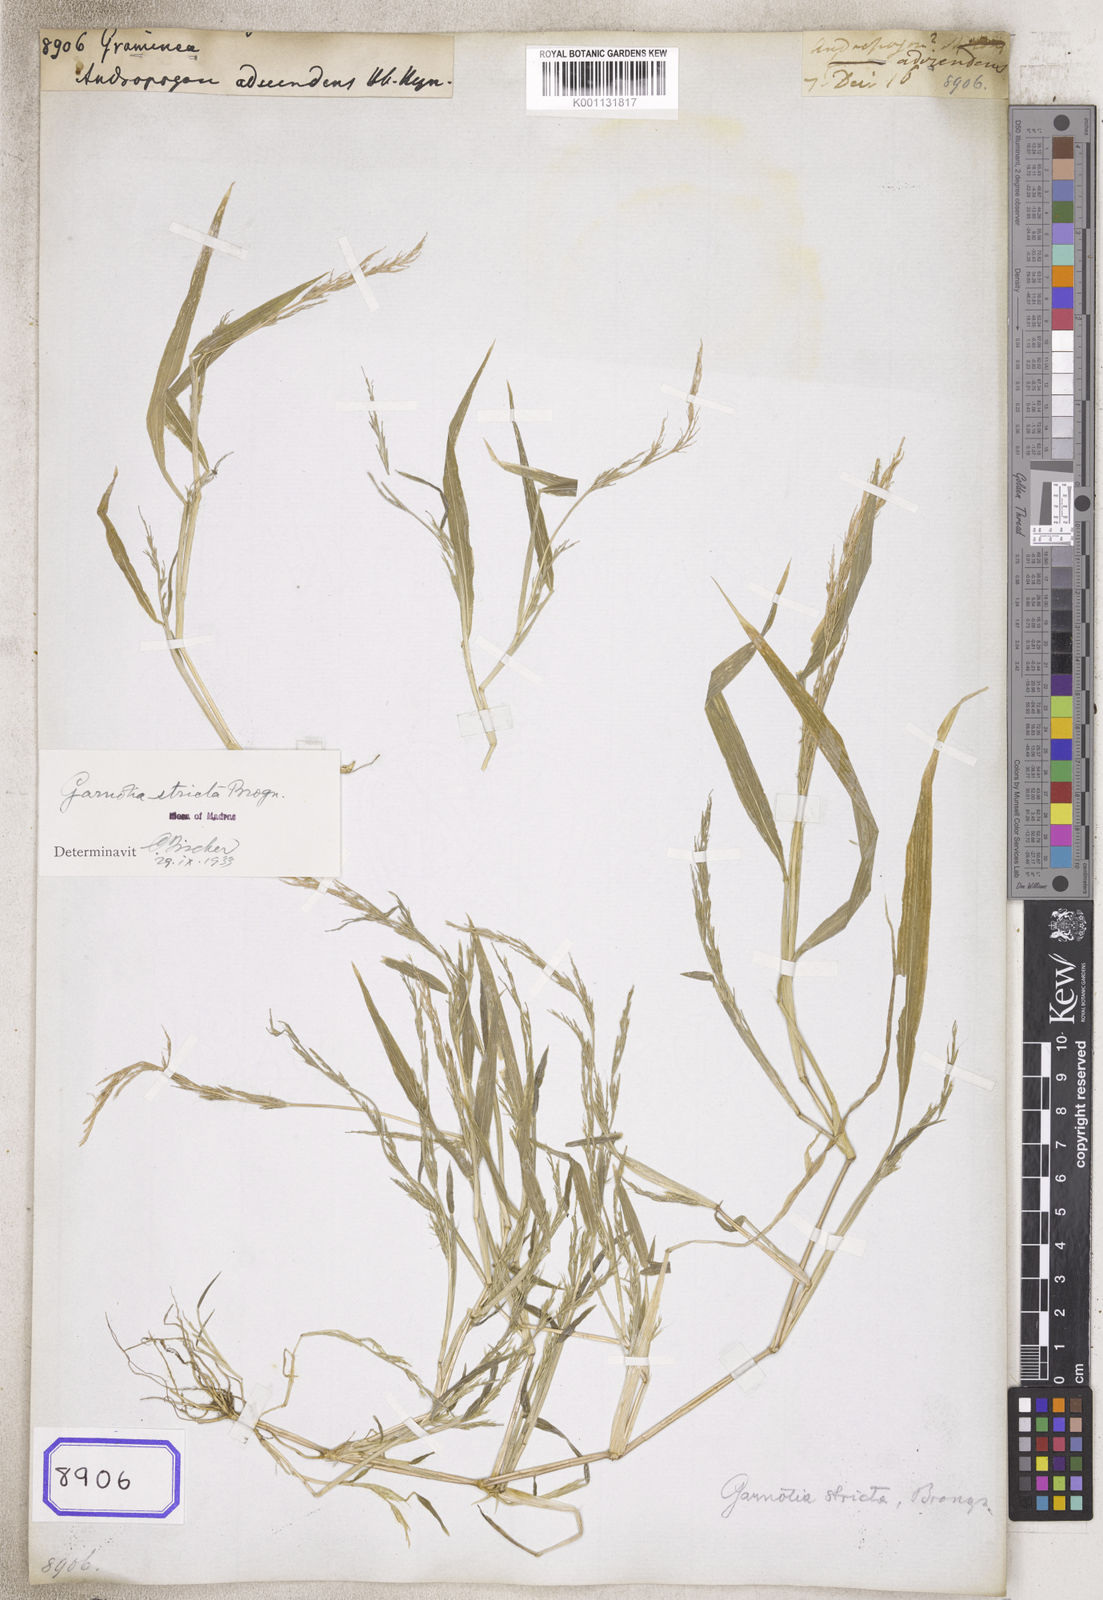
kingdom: Plantae
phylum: Tracheophyta
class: Liliopsida
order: Poales
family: Poaceae
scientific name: Poaceae
